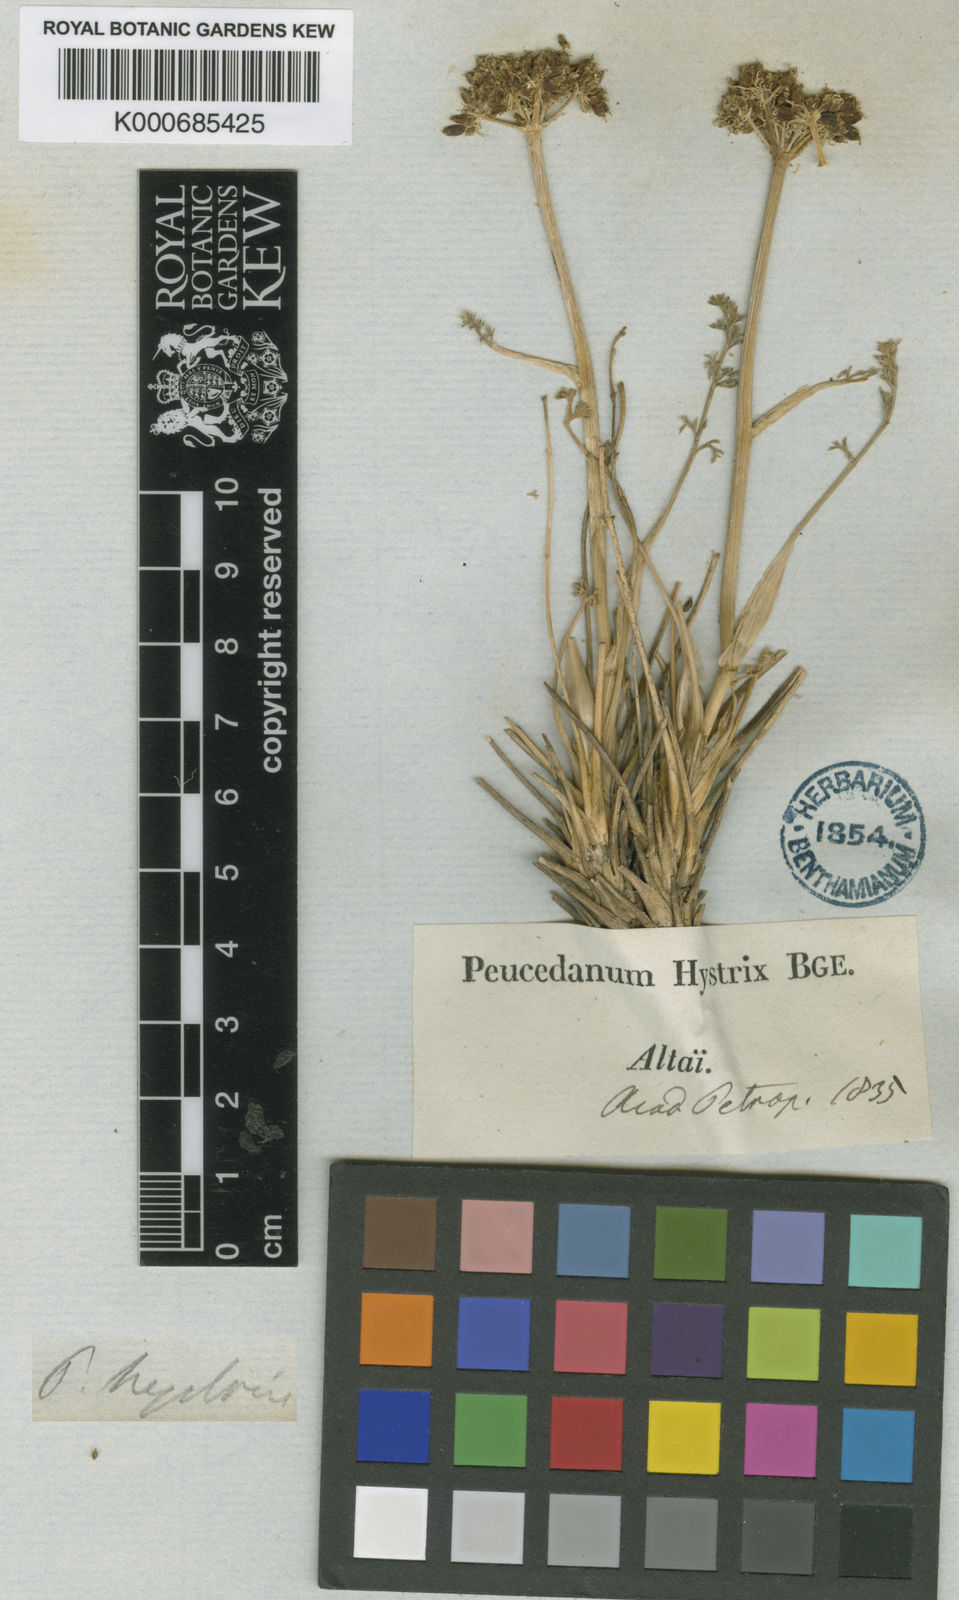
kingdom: Plantae
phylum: Tracheophyta
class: Magnoliopsida
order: Apiales
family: Apiaceae
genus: Ferulopsis
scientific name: Ferulopsis hystrix
